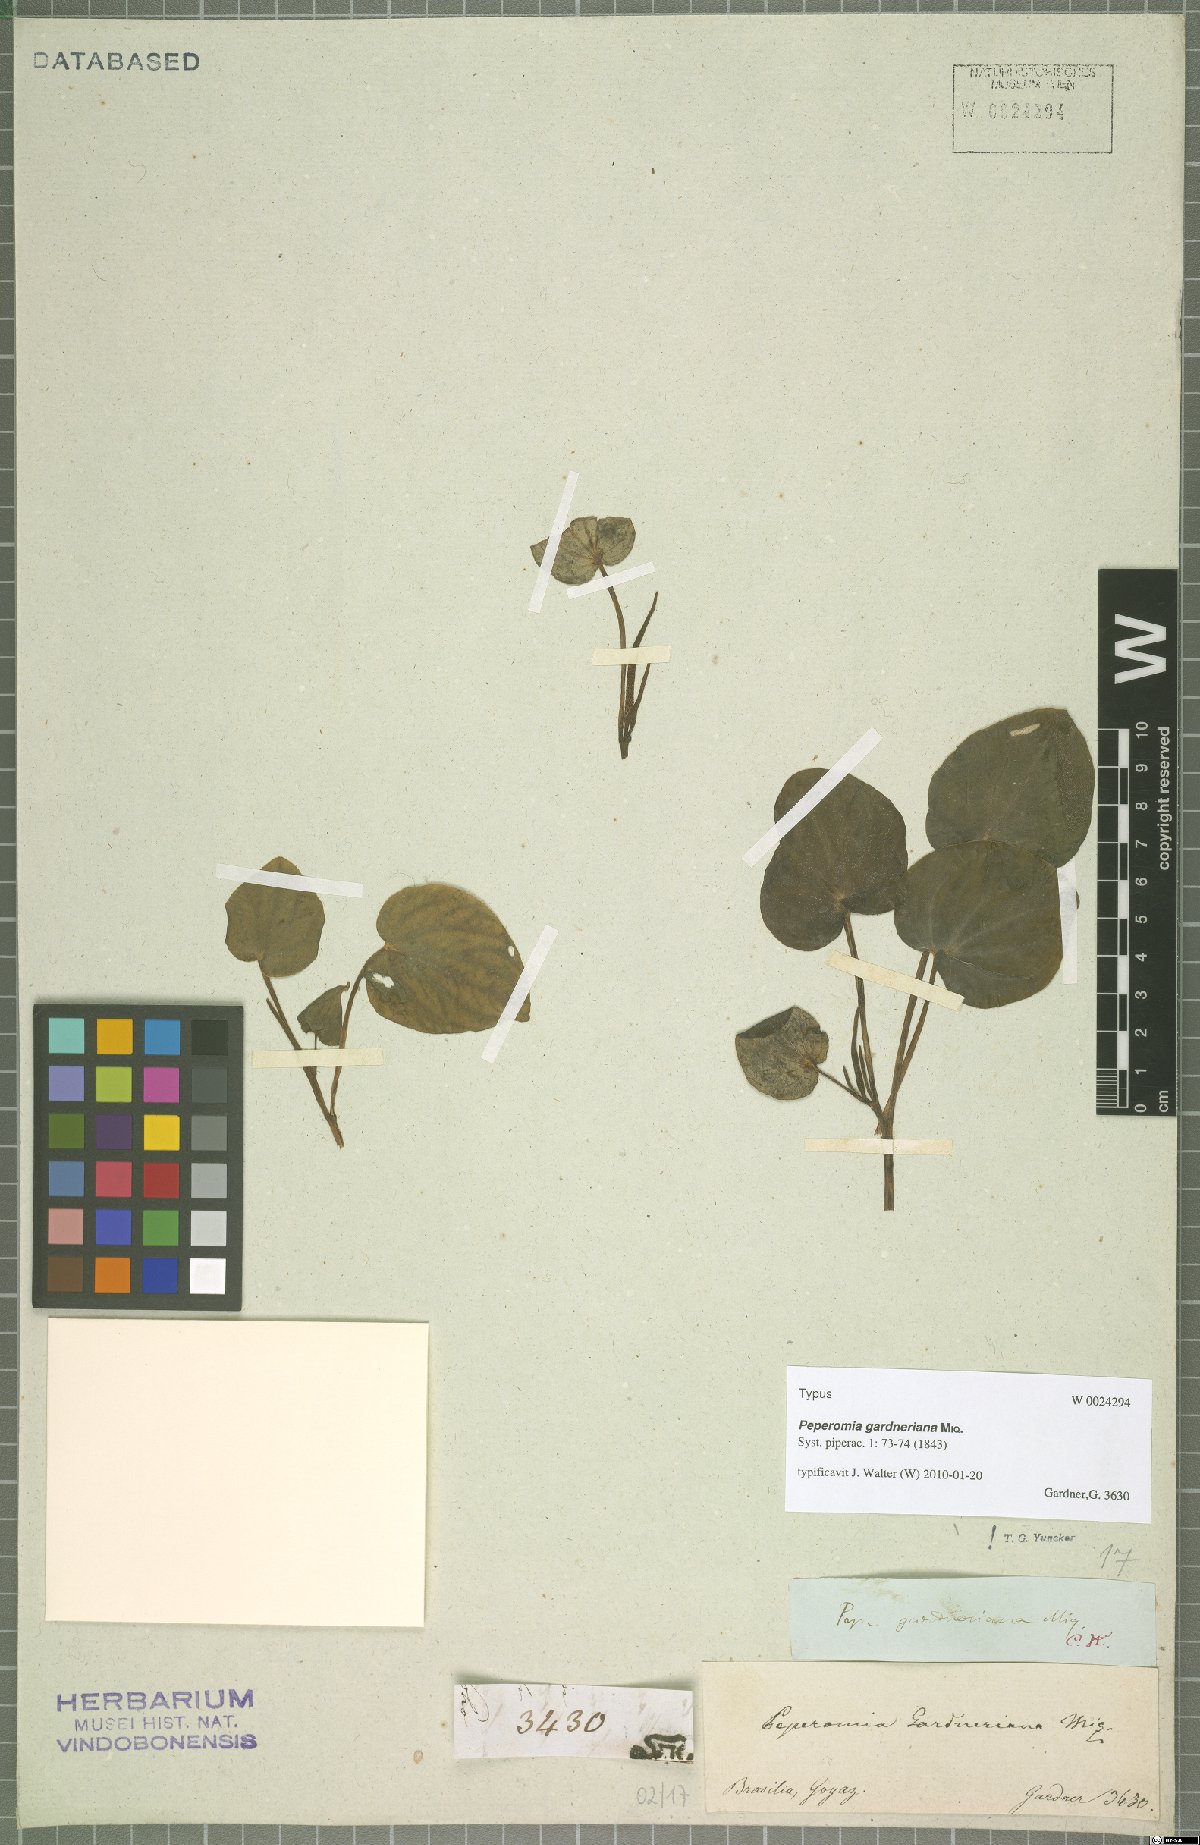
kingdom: Plantae
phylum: Tracheophyta
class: Magnoliopsida
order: Piperales
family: Piperaceae
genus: Peperomia
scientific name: Peperomia gardneriana
